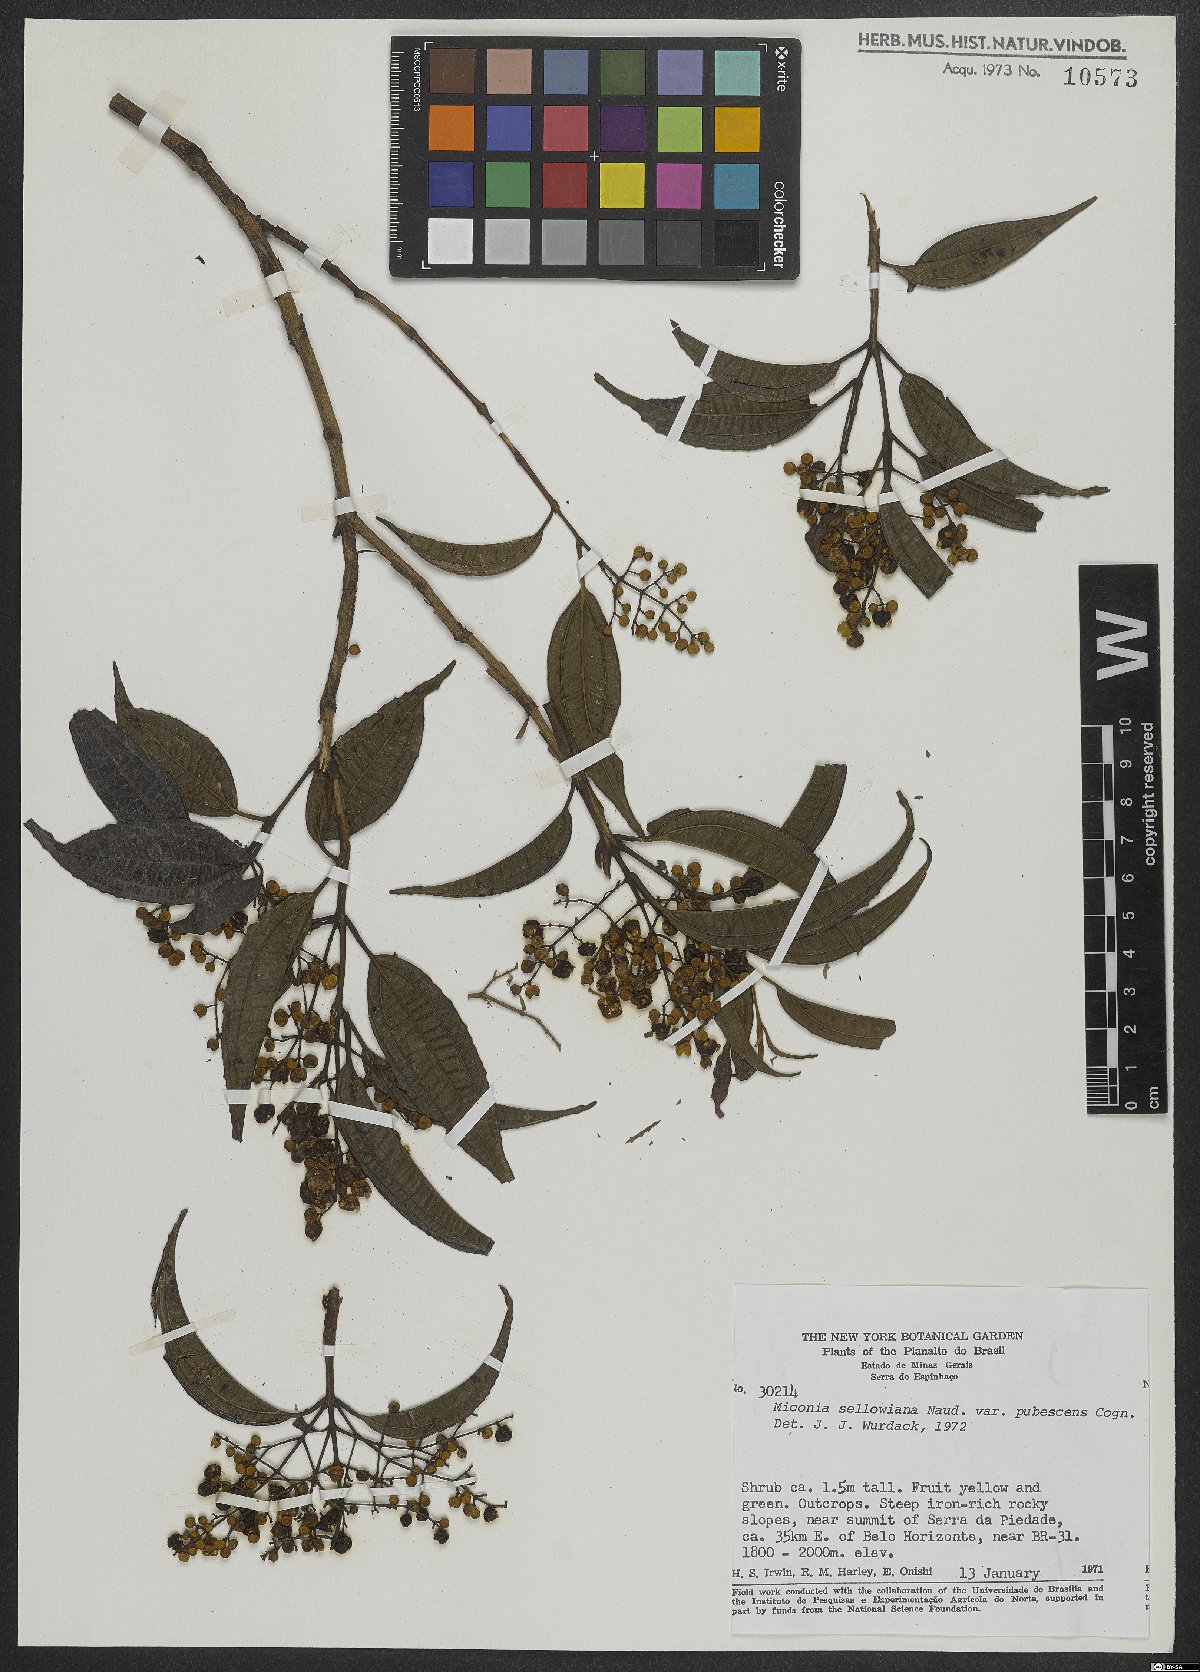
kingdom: Plantae
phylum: Tracheophyta
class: Magnoliopsida
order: Myrtales
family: Melastomataceae
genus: Miconia
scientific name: Miconia sellowiana
